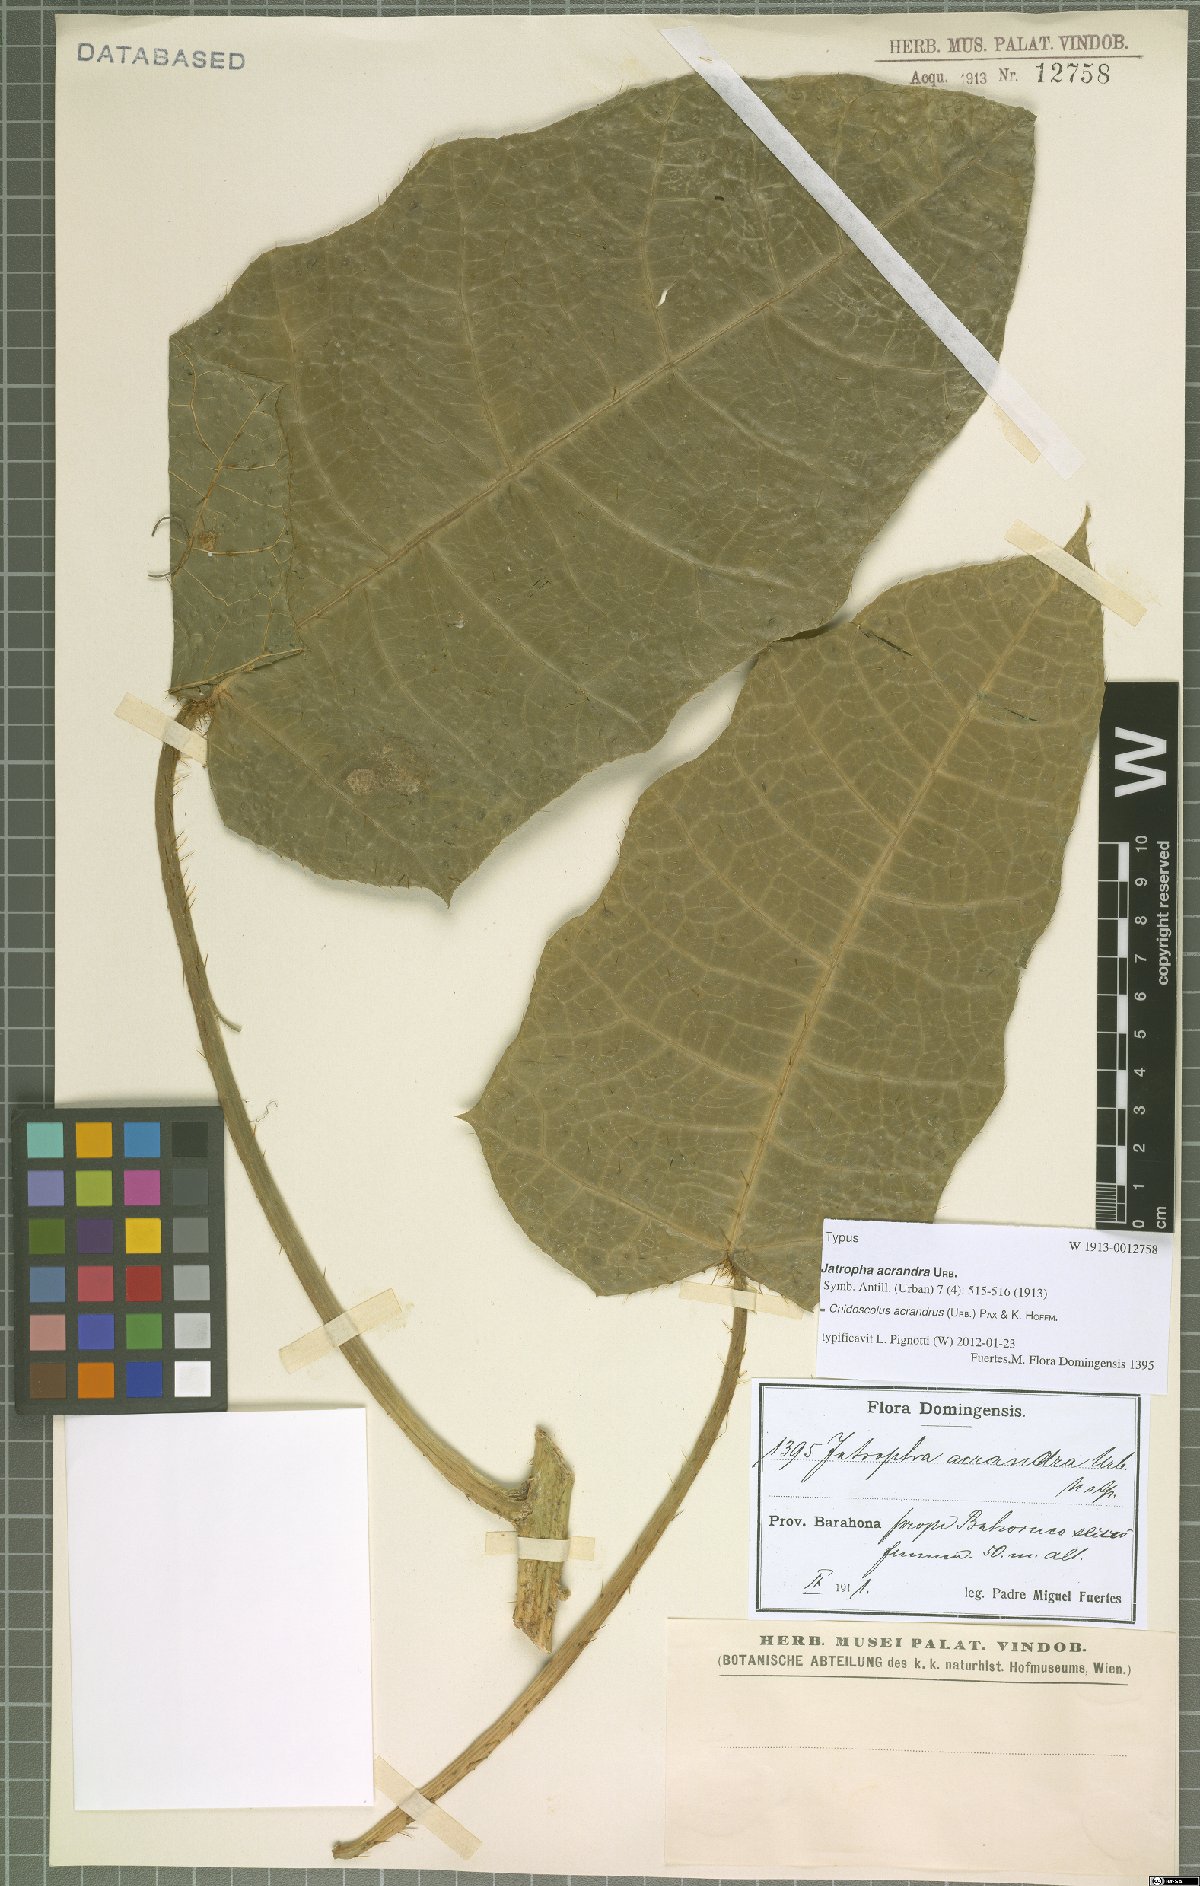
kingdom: Plantae
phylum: Tracheophyta
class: Magnoliopsida
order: Malpighiales
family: Euphorbiaceae
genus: Cnidoscolus
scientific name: Cnidoscolus acrandrus
